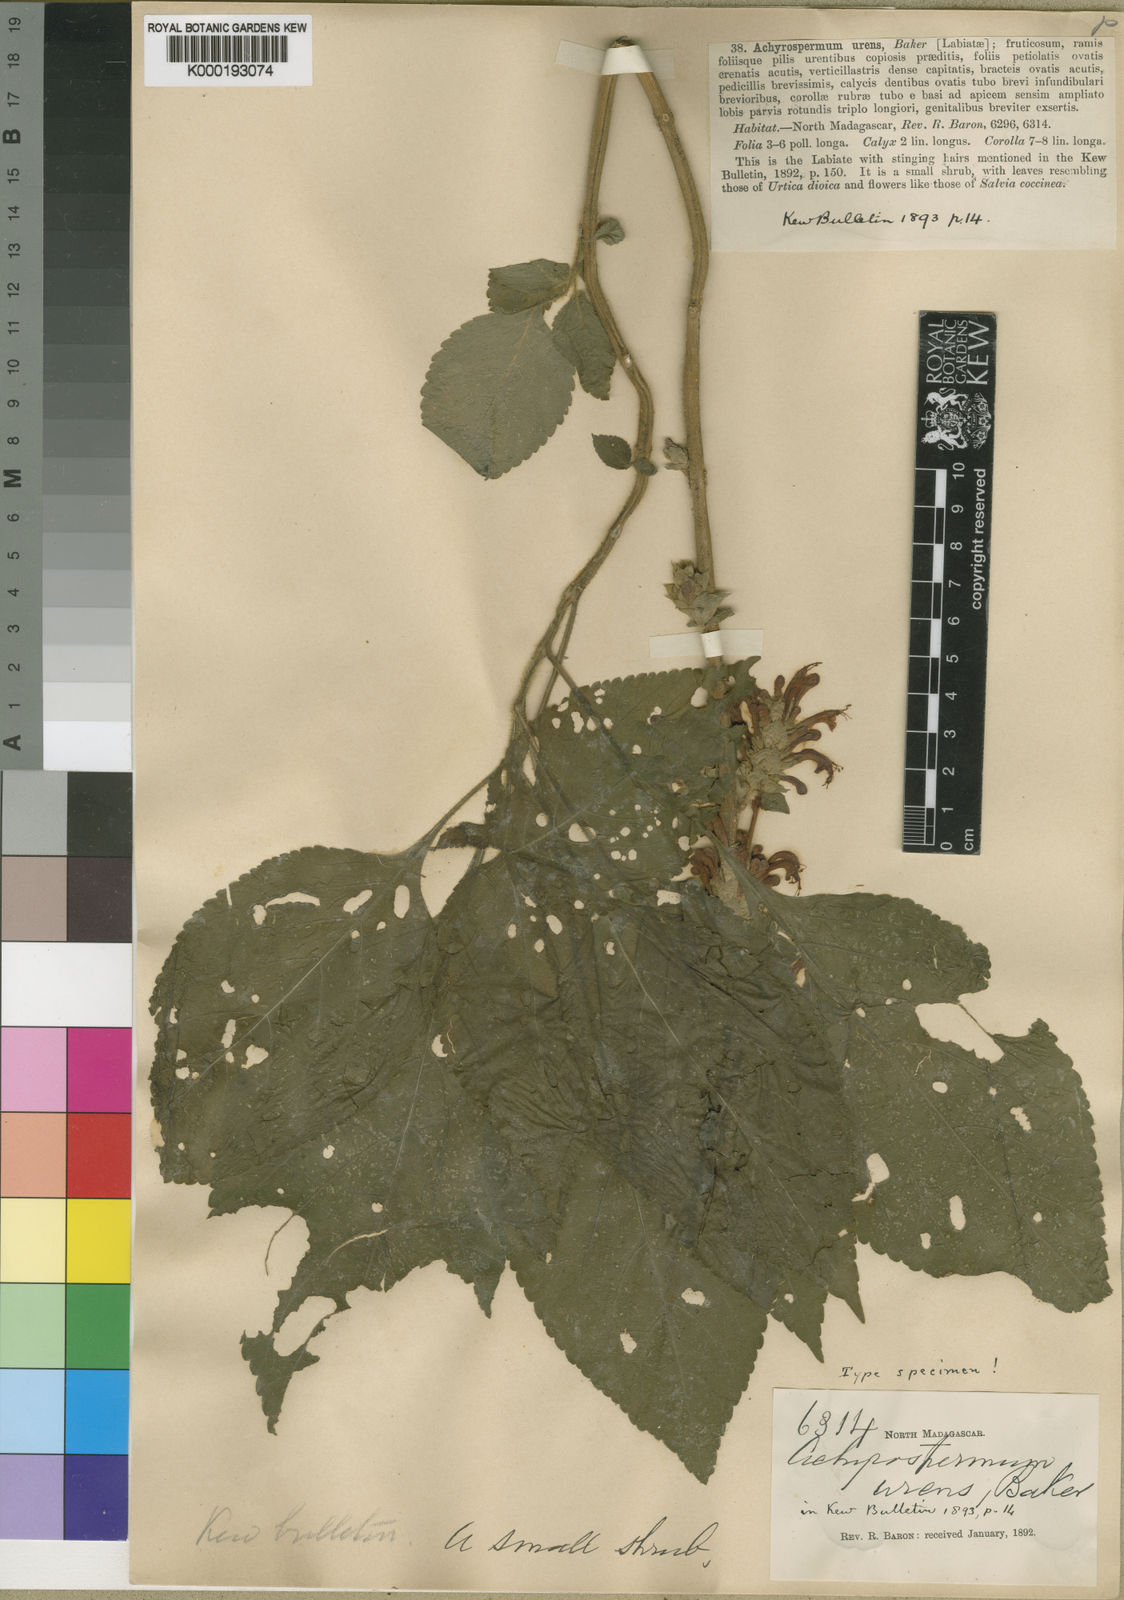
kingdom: Plantae
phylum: Tracheophyta
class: Magnoliopsida
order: Lamiales
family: Lamiaceae
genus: Achyrospermum
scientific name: Achyrospermum urens
